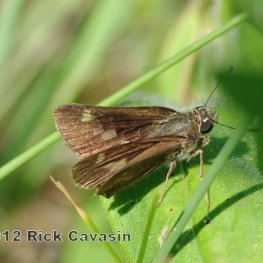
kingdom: Animalia
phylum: Arthropoda
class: Insecta
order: Lepidoptera
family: Hesperiidae
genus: Vernia
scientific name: Vernia verna
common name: Little Glassywing
